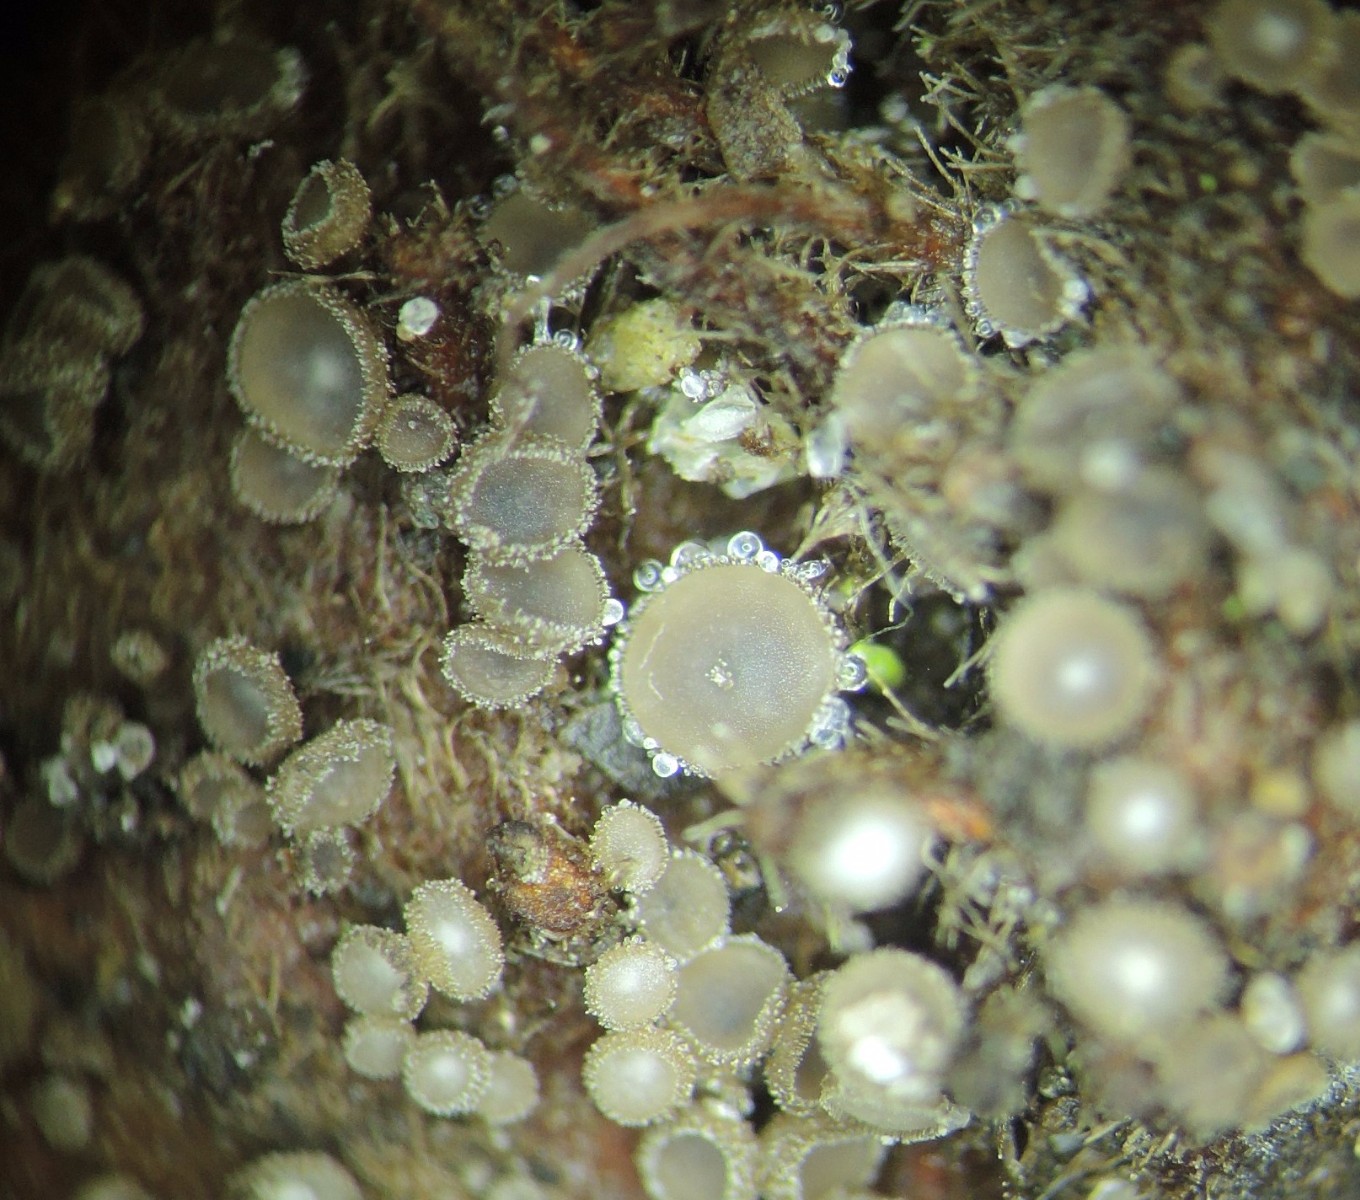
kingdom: Fungi
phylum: Ascomycota
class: Leotiomycetes
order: Helotiales
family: Lachnaceae
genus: Brunnipila
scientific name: Brunnipila fuscescens
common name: bøge-frynseskive
